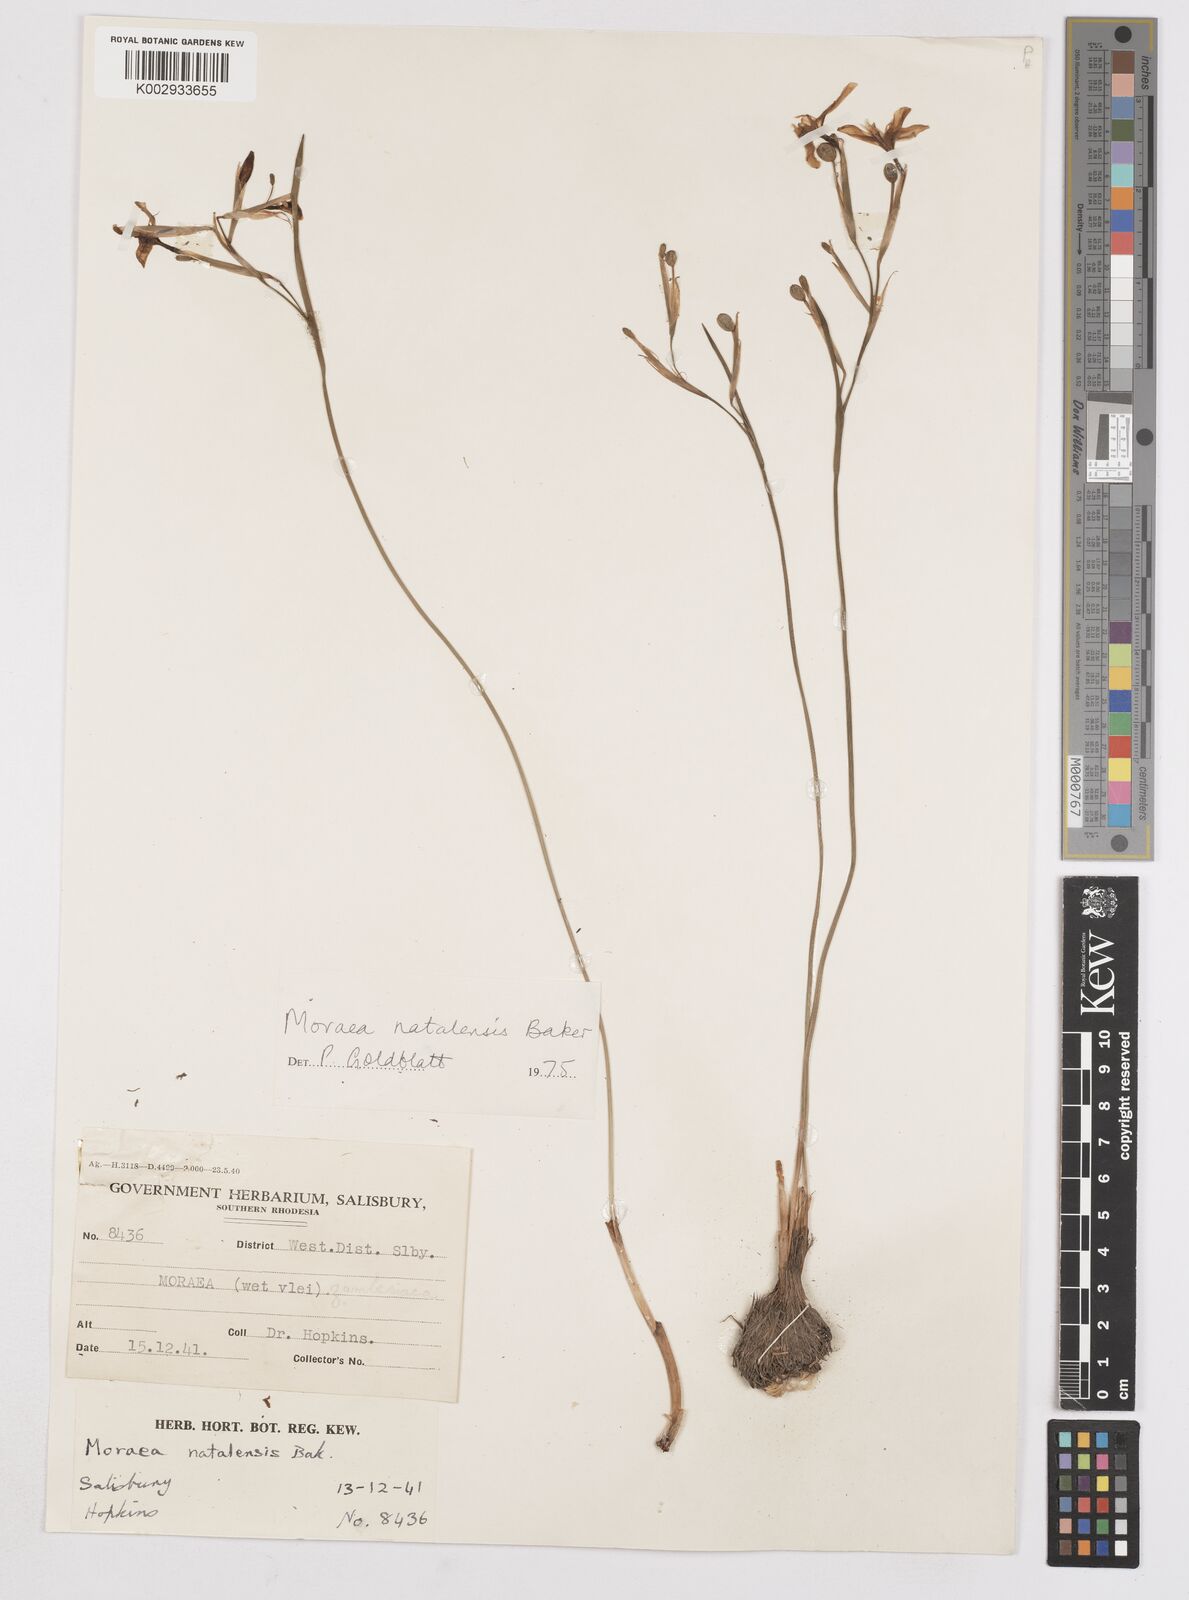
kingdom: Plantae
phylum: Tracheophyta
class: Liliopsida
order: Asparagales
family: Iridaceae
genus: Moraea
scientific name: Moraea natalensis
